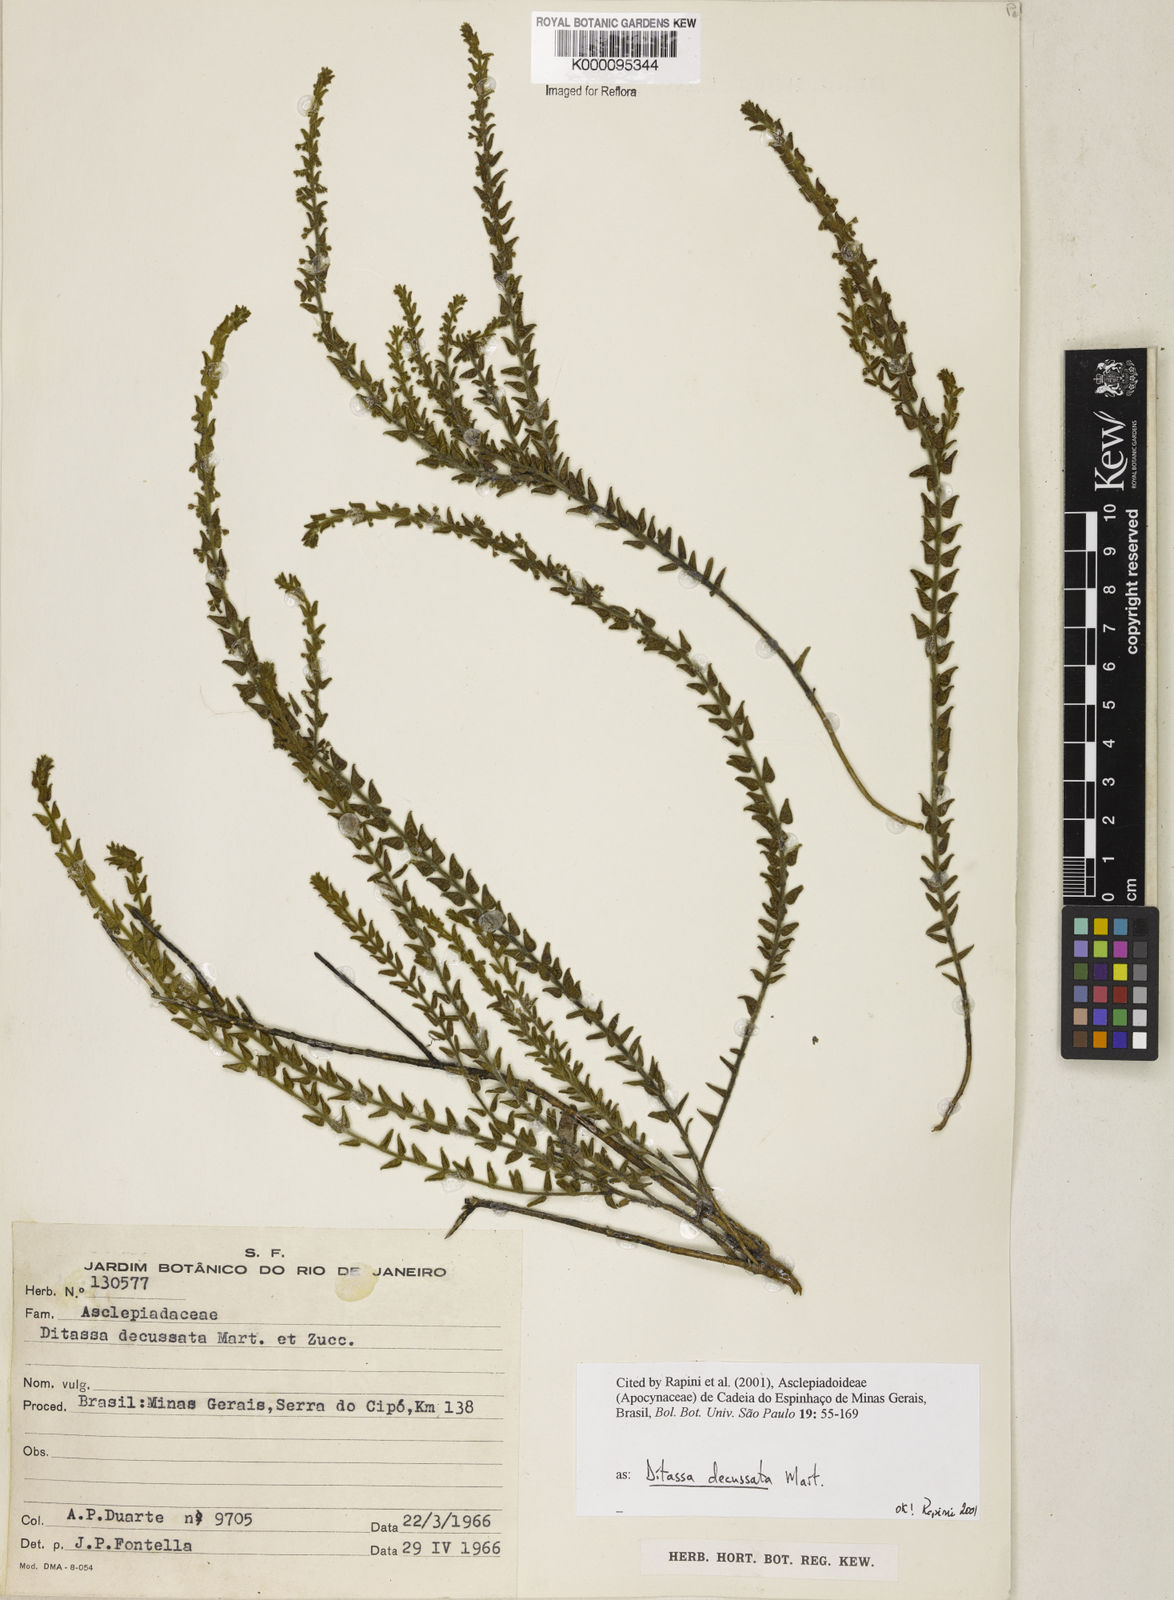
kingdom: Plantae
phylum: Tracheophyta
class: Magnoliopsida
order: Gentianales
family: Apocynaceae
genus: Minaria
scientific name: Minaria decussata
